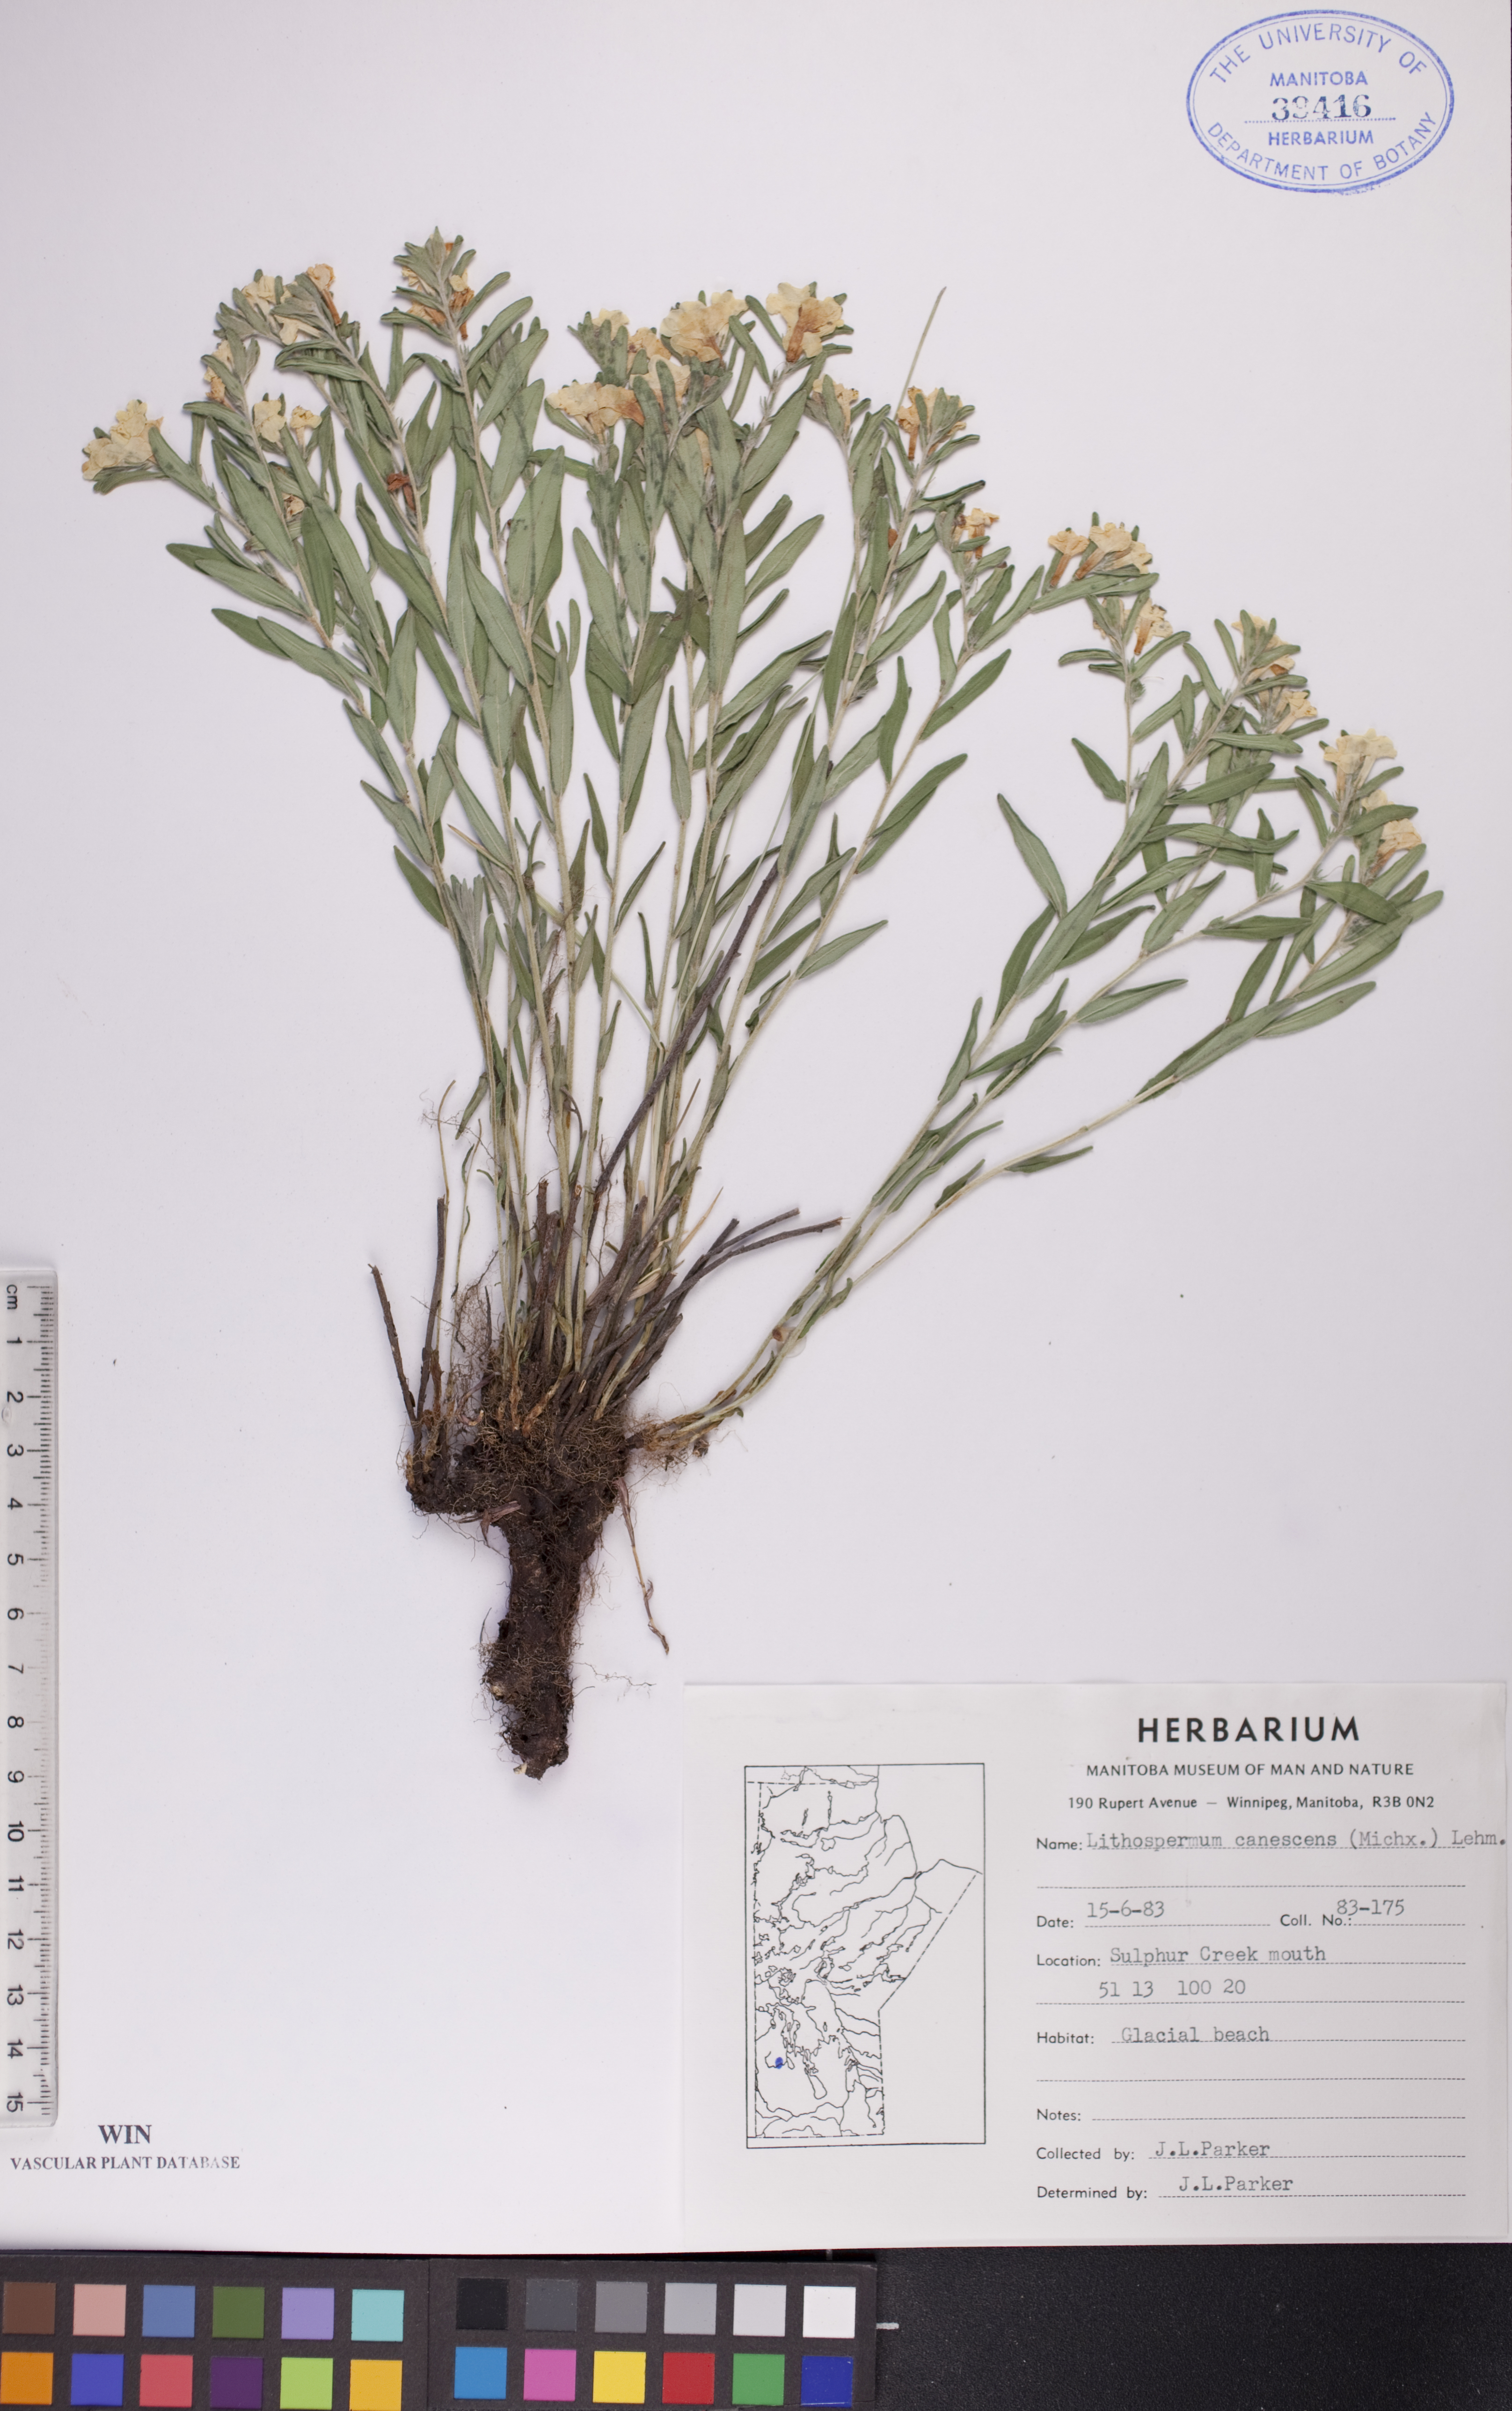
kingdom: Plantae
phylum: Tracheophyta
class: Magnoliopsida
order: Boraginales
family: Boraginaceae
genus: Lithospermum
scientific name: Lithospermum canescens
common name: Hoary puccoon
